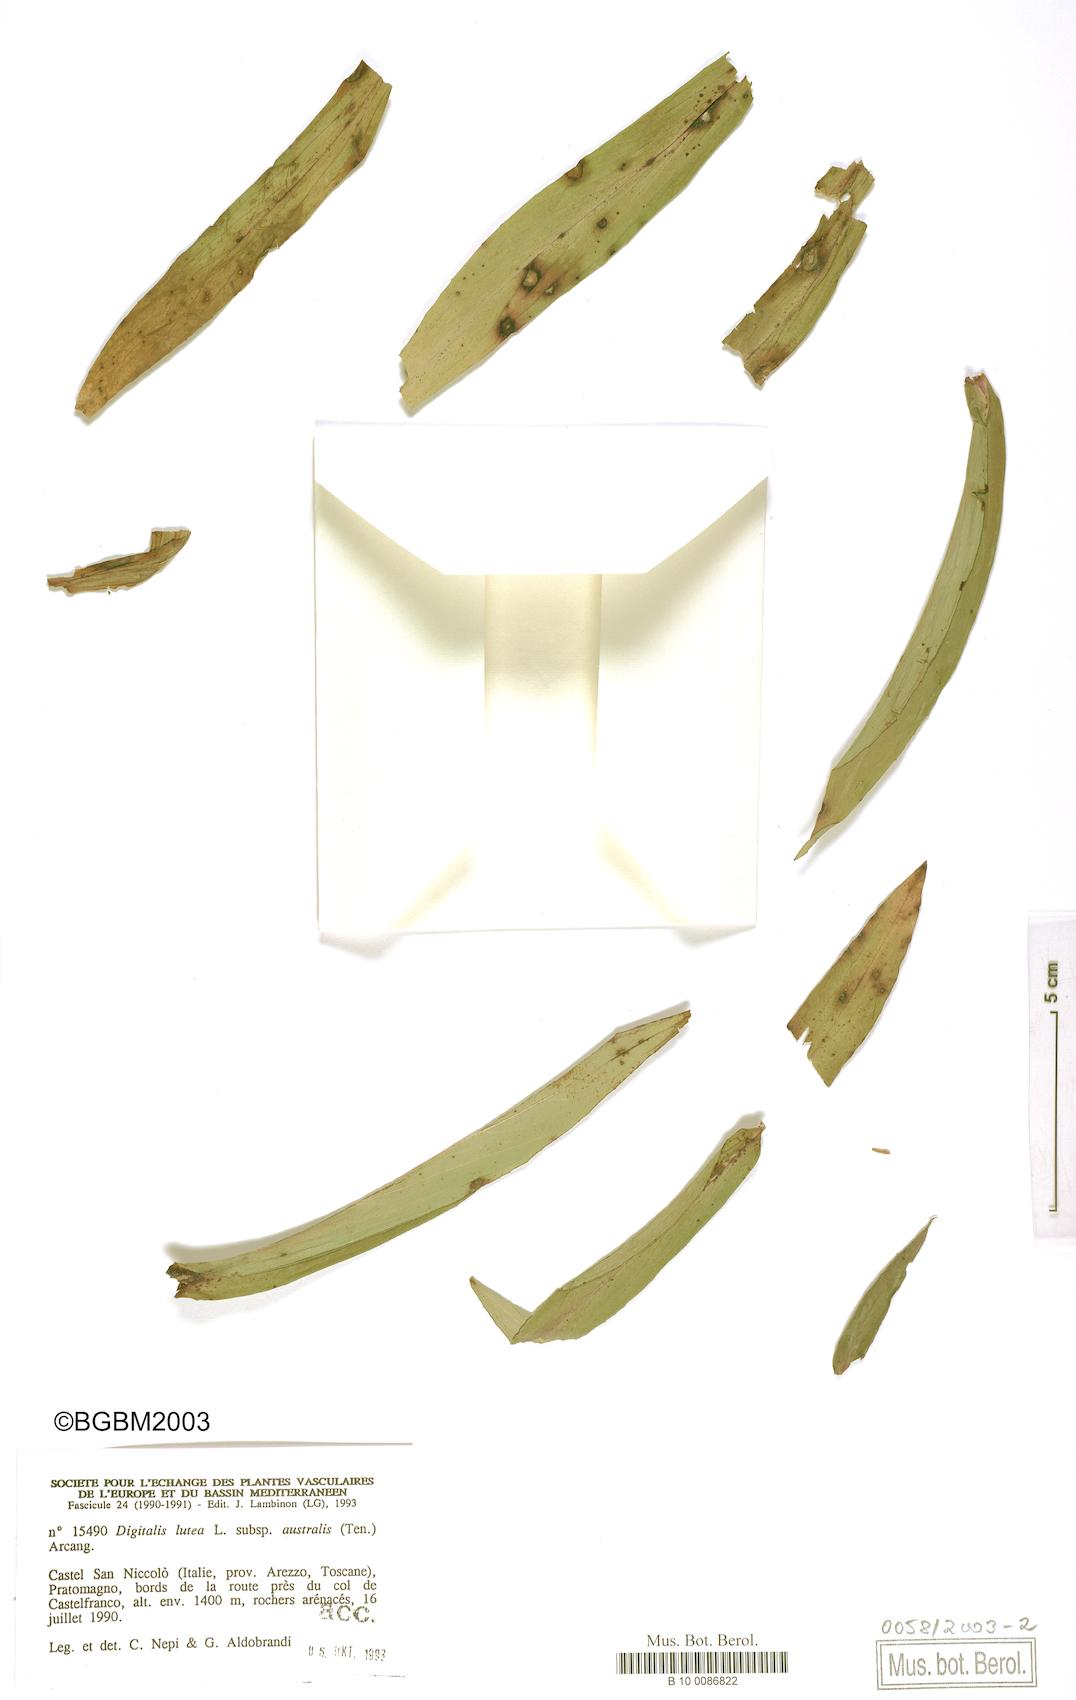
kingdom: Plantae
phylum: Tracheophyta
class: Magnoliopsida
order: Lamiales
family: Plantaginaceae
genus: Digitalis
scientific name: Digitalis lutea
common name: Straw foxglove
